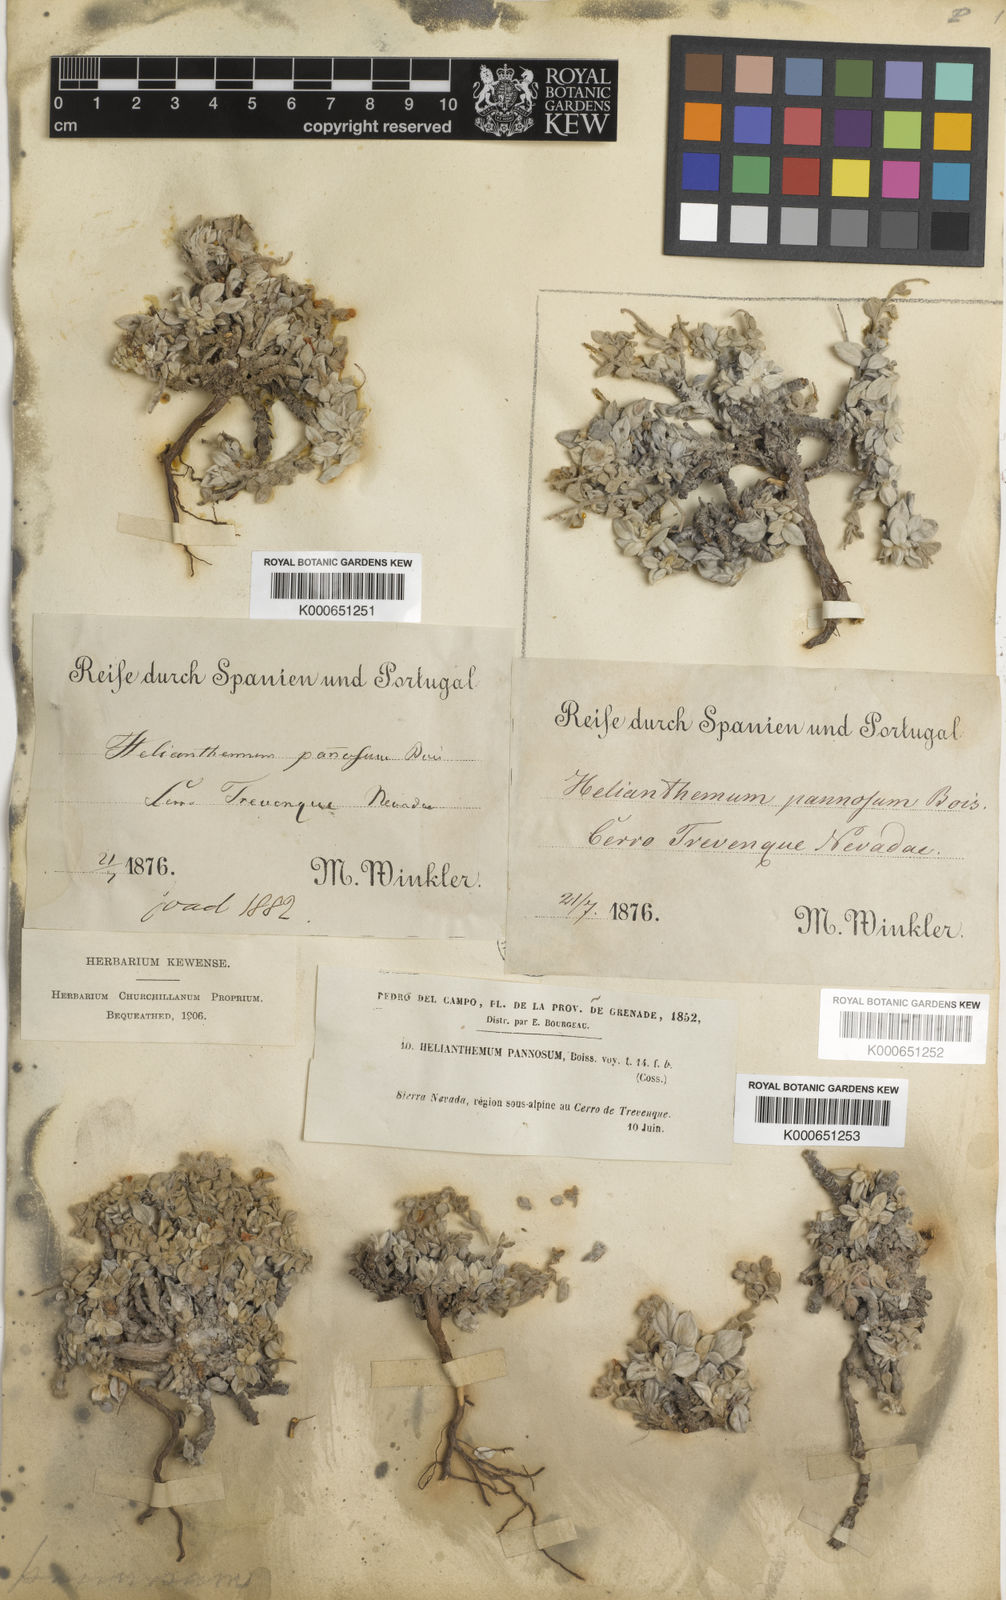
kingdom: Plantae
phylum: Tracheophyta
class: Magnoliopsida
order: Malvales
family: Cistaceae
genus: Helianthemum
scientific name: Helianthemum pannosum
